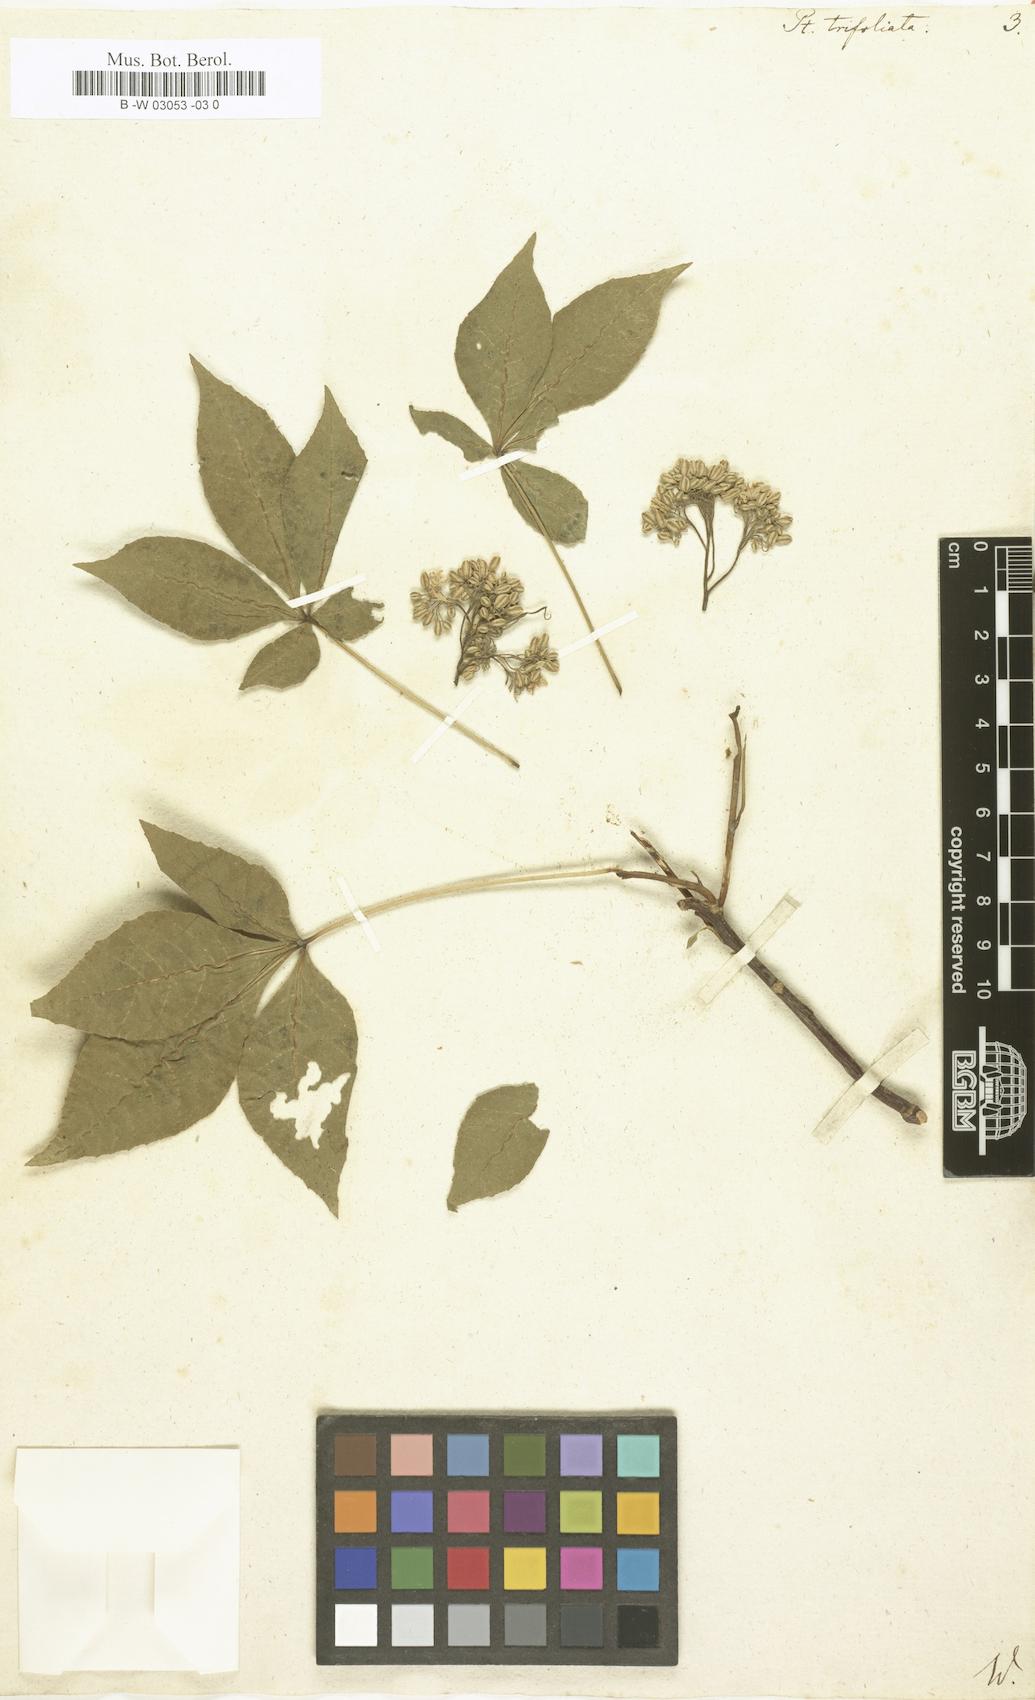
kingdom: Plantae
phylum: Tracheophyta
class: Magnoliopsida
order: Sapindales
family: Rutaceae
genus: Ptelea
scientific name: Ptelea trifoliata
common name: Common hop-tree
